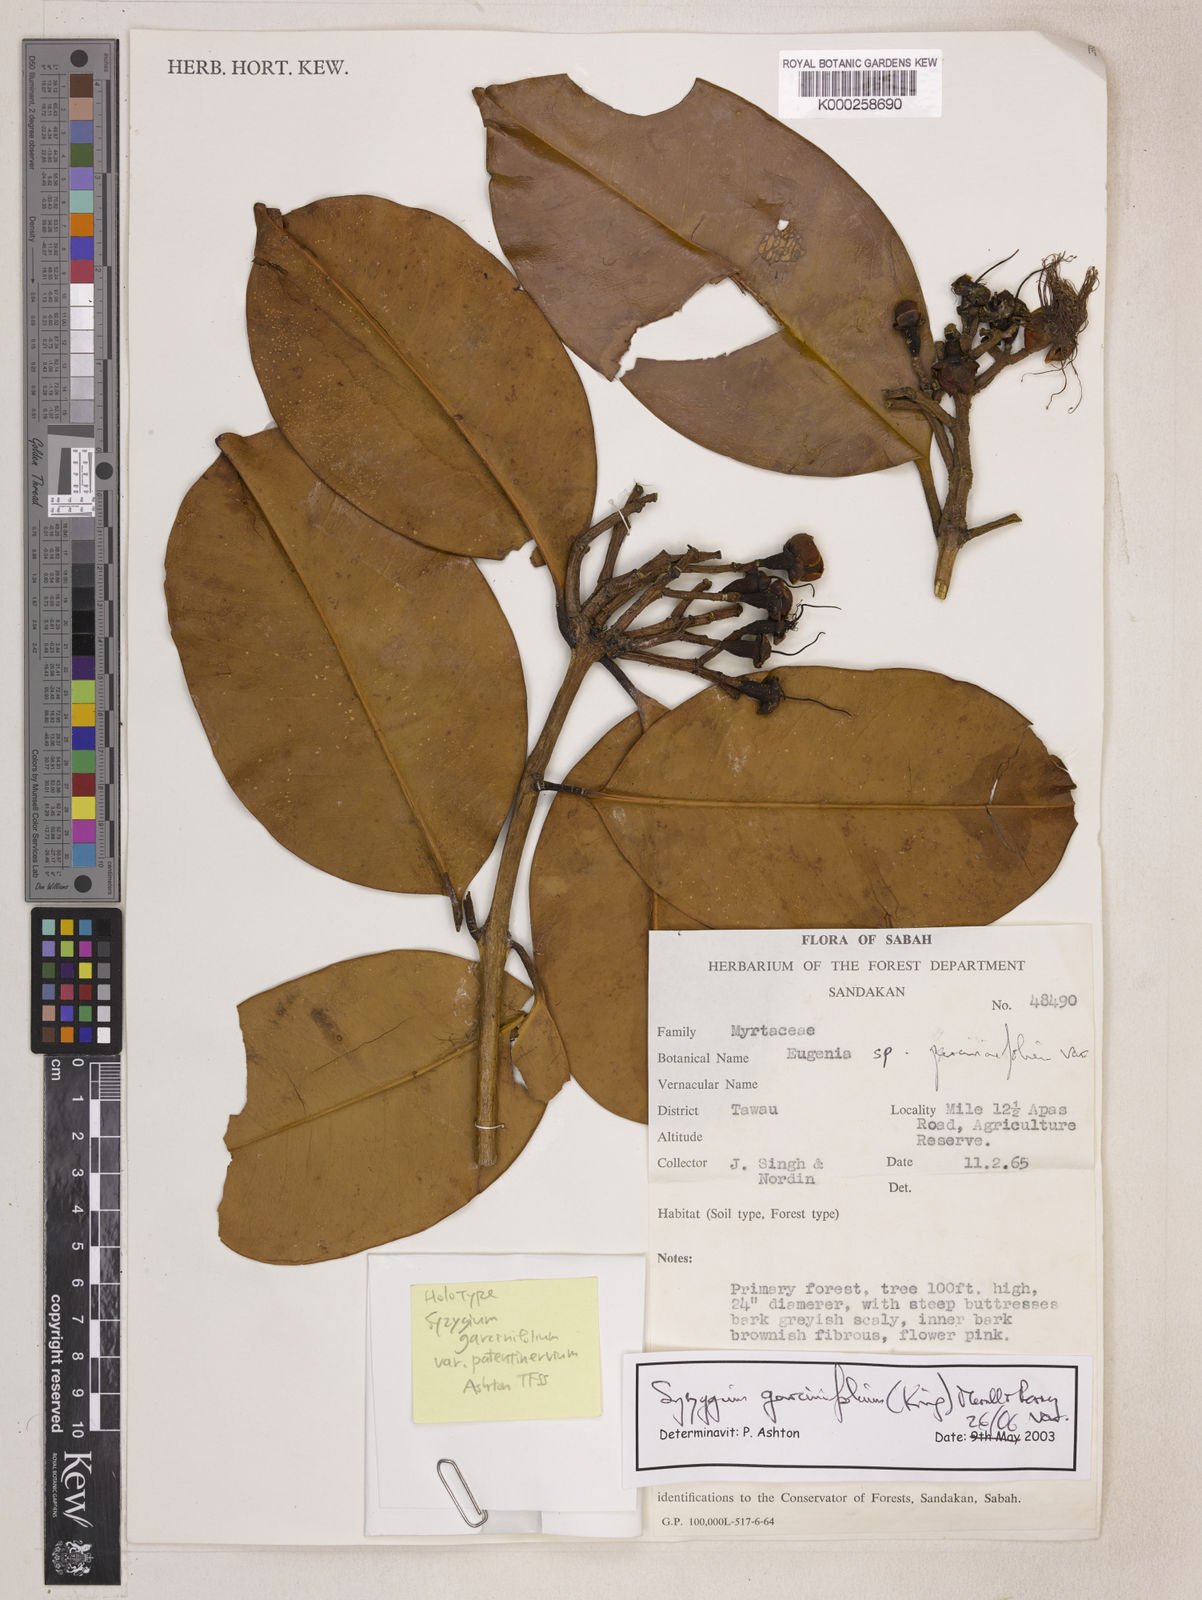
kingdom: Plantae
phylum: Tracheophyta
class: Magnoliopsida
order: Myrtales
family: Myrtaceae
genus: Syzygium
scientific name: Syzygium garciniifolium
